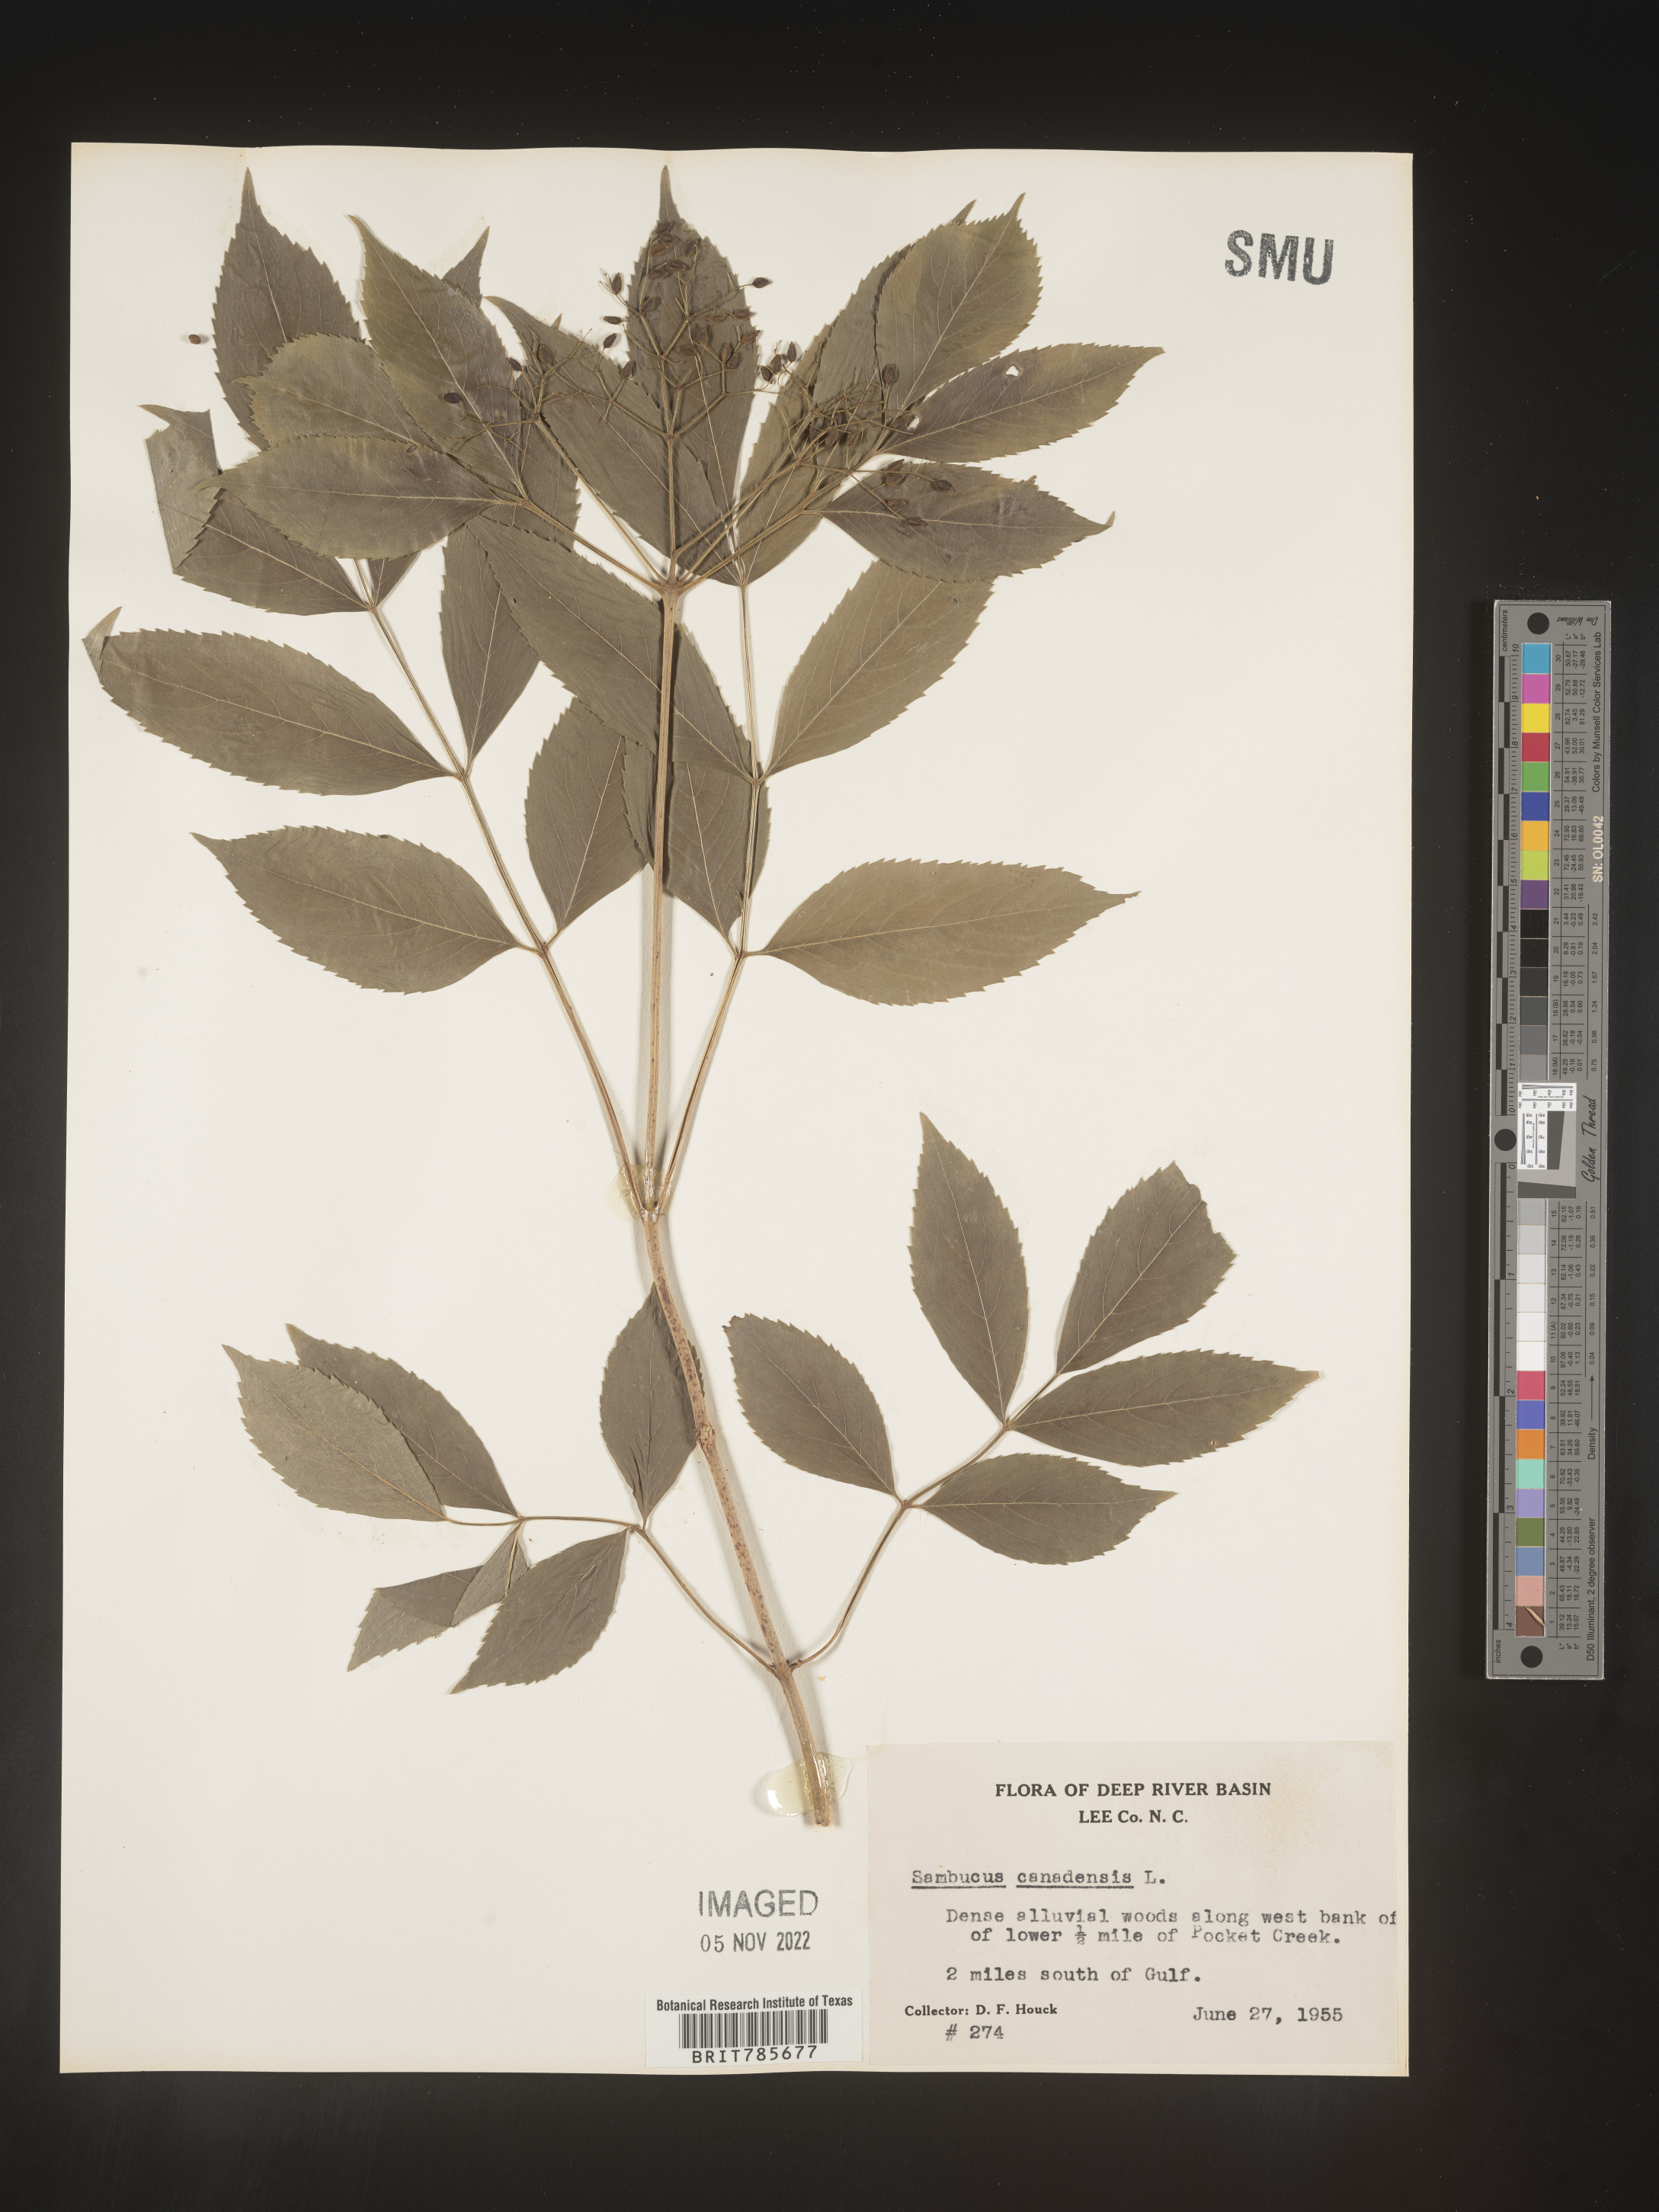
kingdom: Plantae
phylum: Tracheophyta
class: Magnoliopsida
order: Dipsacales
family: Viburnaceae
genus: Sambucus
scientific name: Sambucus canadensis
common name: American elder
